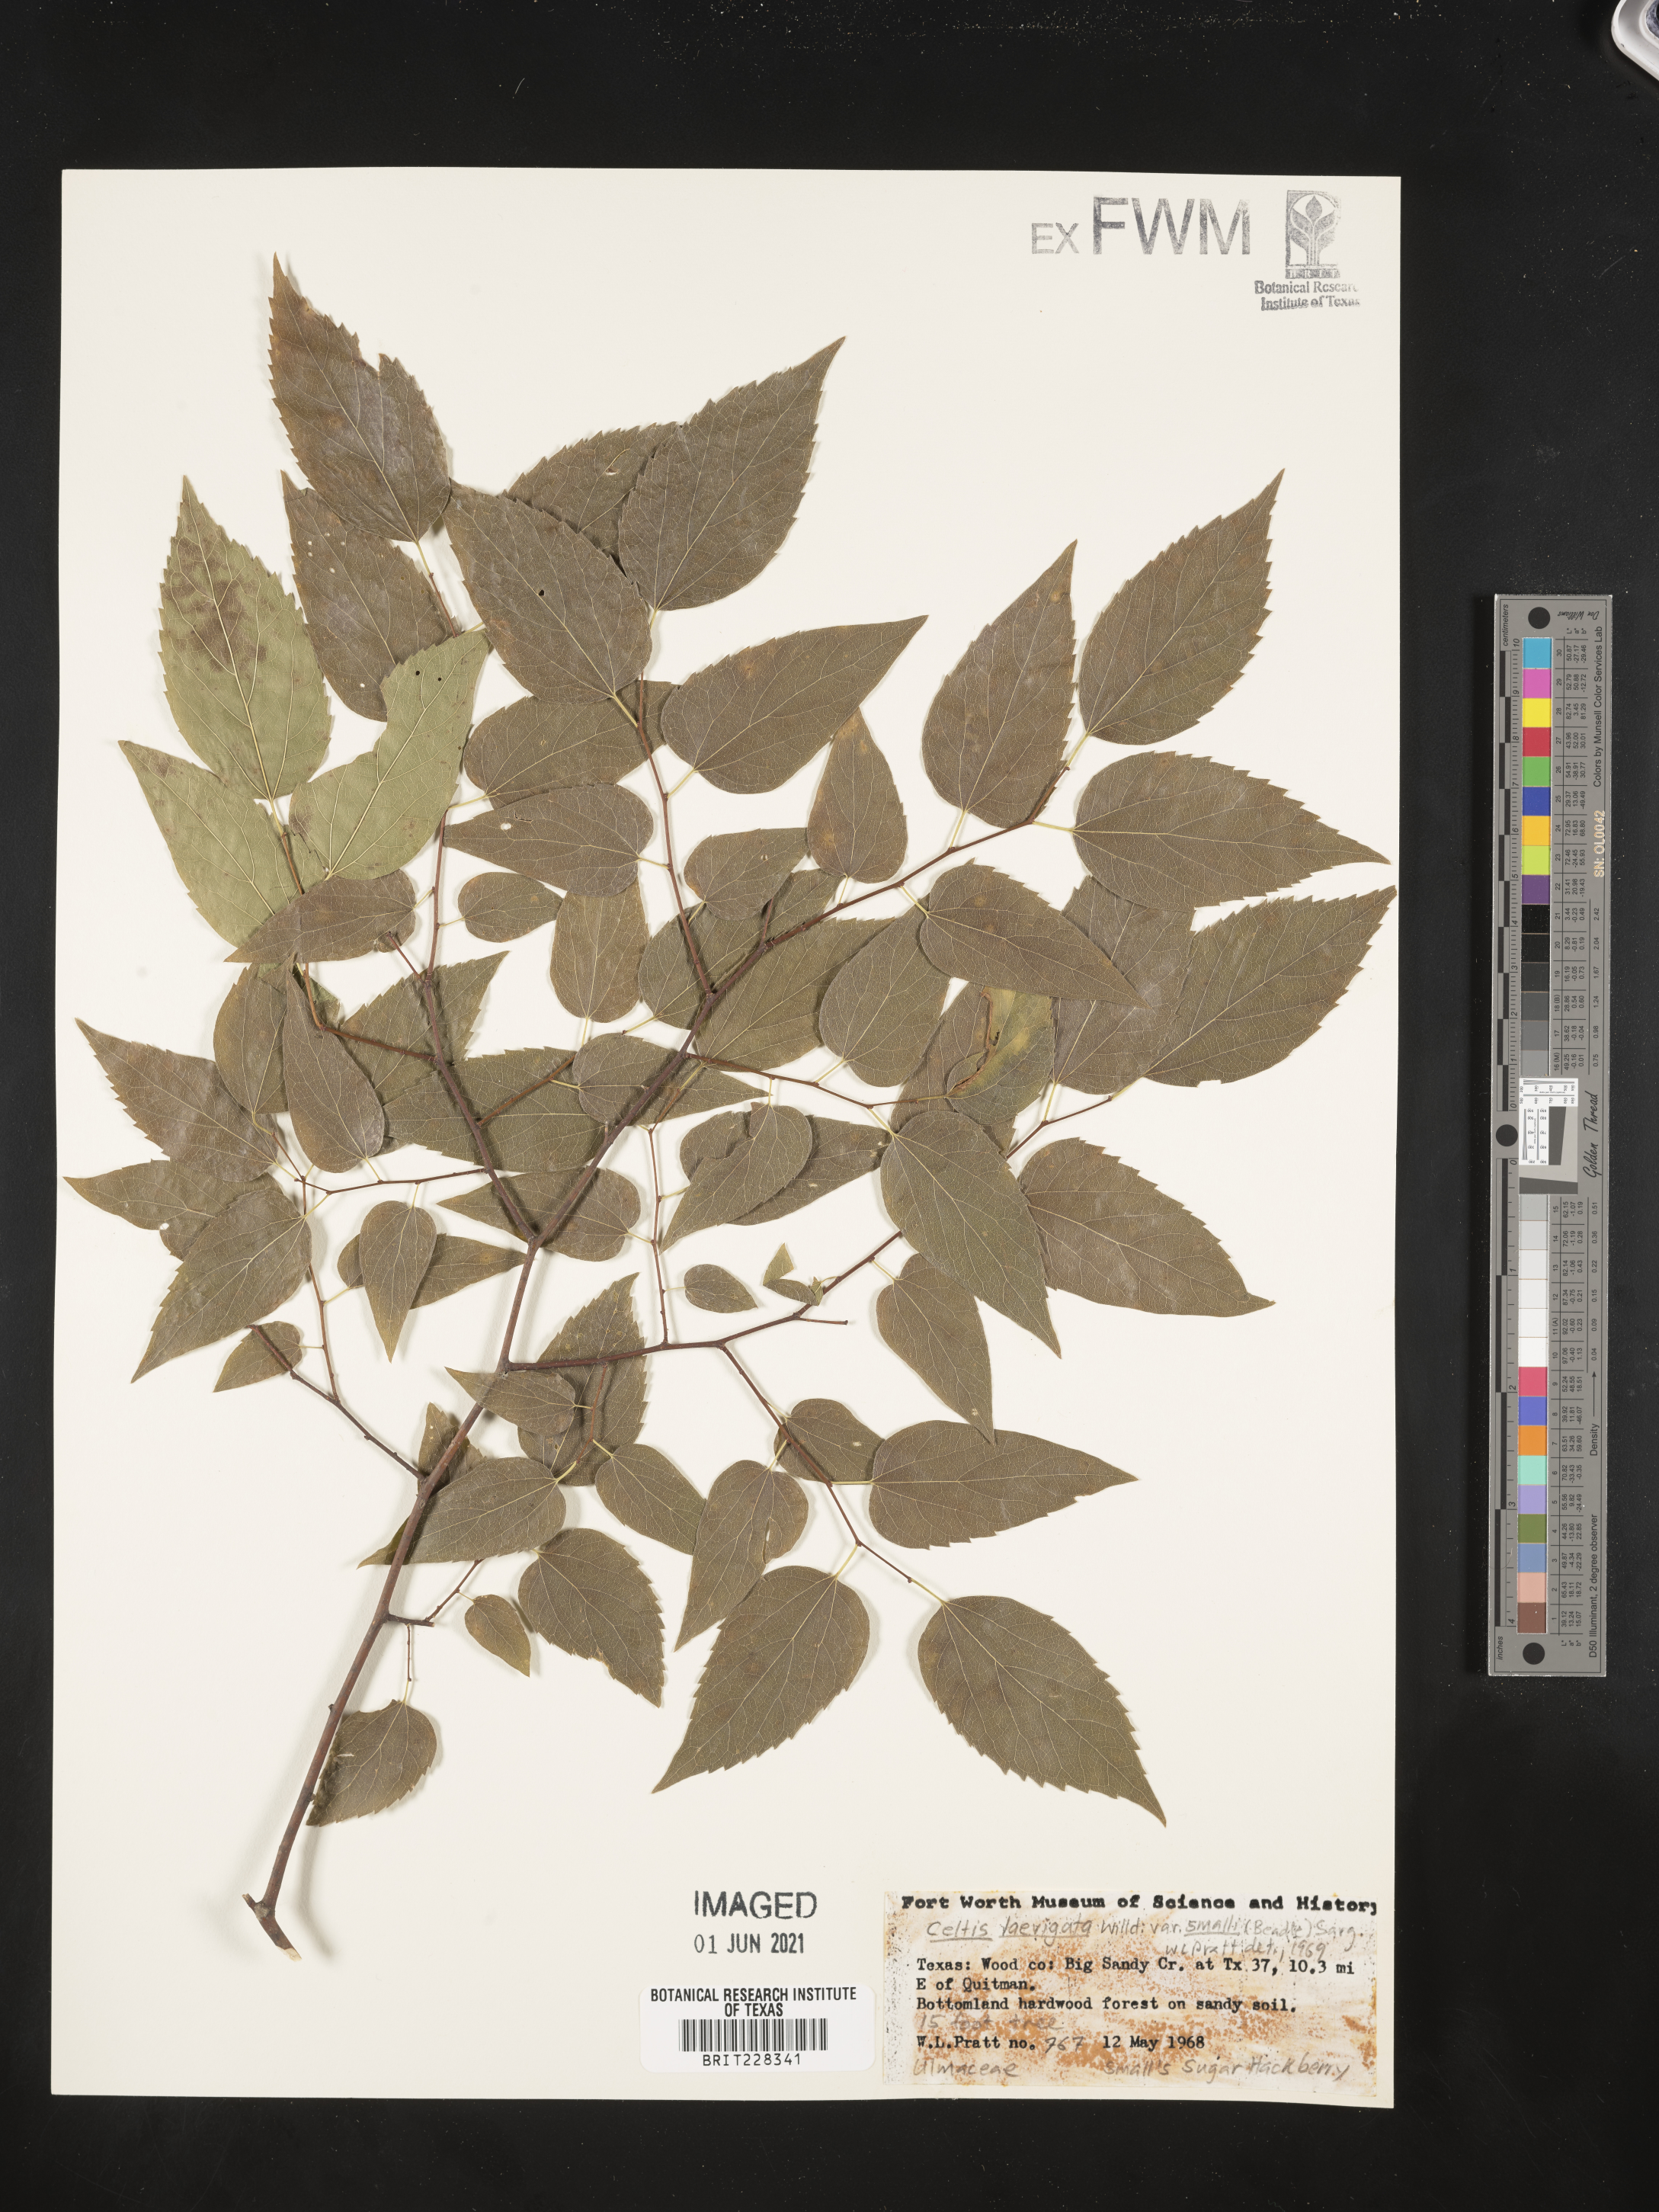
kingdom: Plantae
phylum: Tracheophyta
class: Magnoliopsida
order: Rosales
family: Cannabaceae
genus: Celtis
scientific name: Celtis
